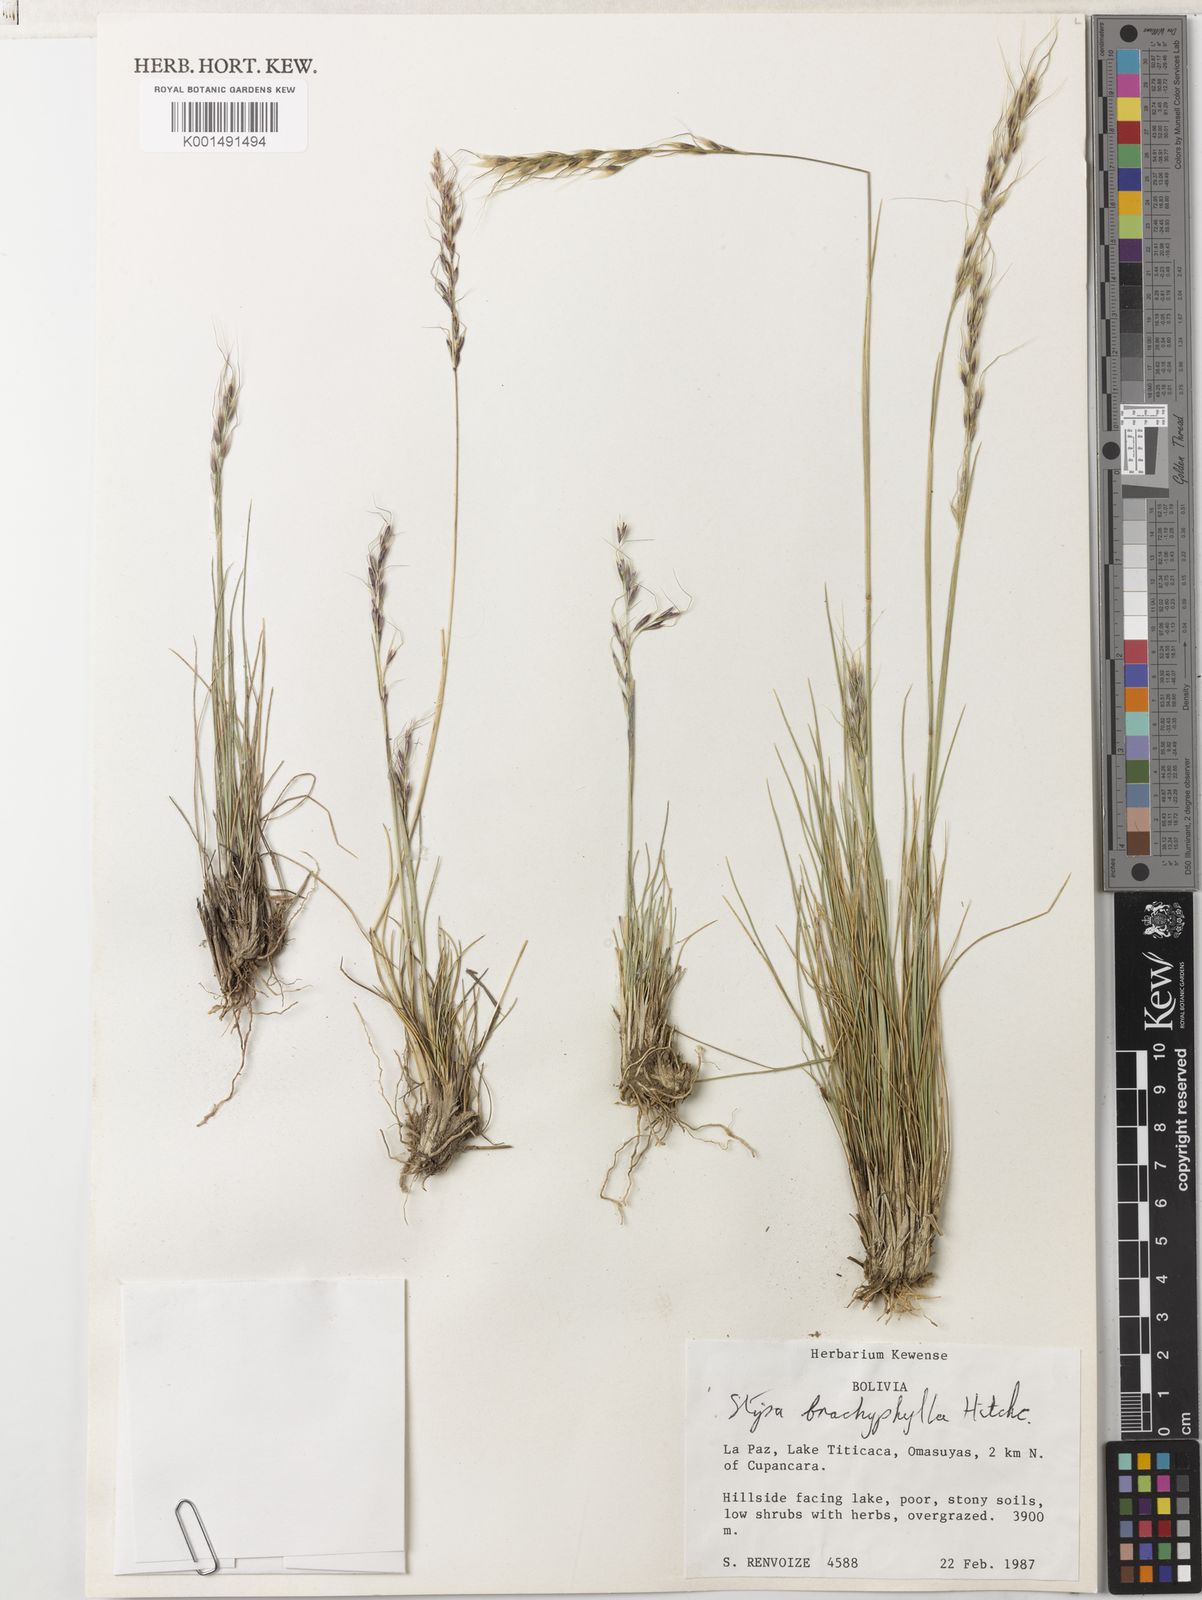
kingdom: Plantae
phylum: Tracheophyta
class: Liliopsida
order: Poales
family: Poaceae
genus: Nassella
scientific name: Nassella brachyphylla
